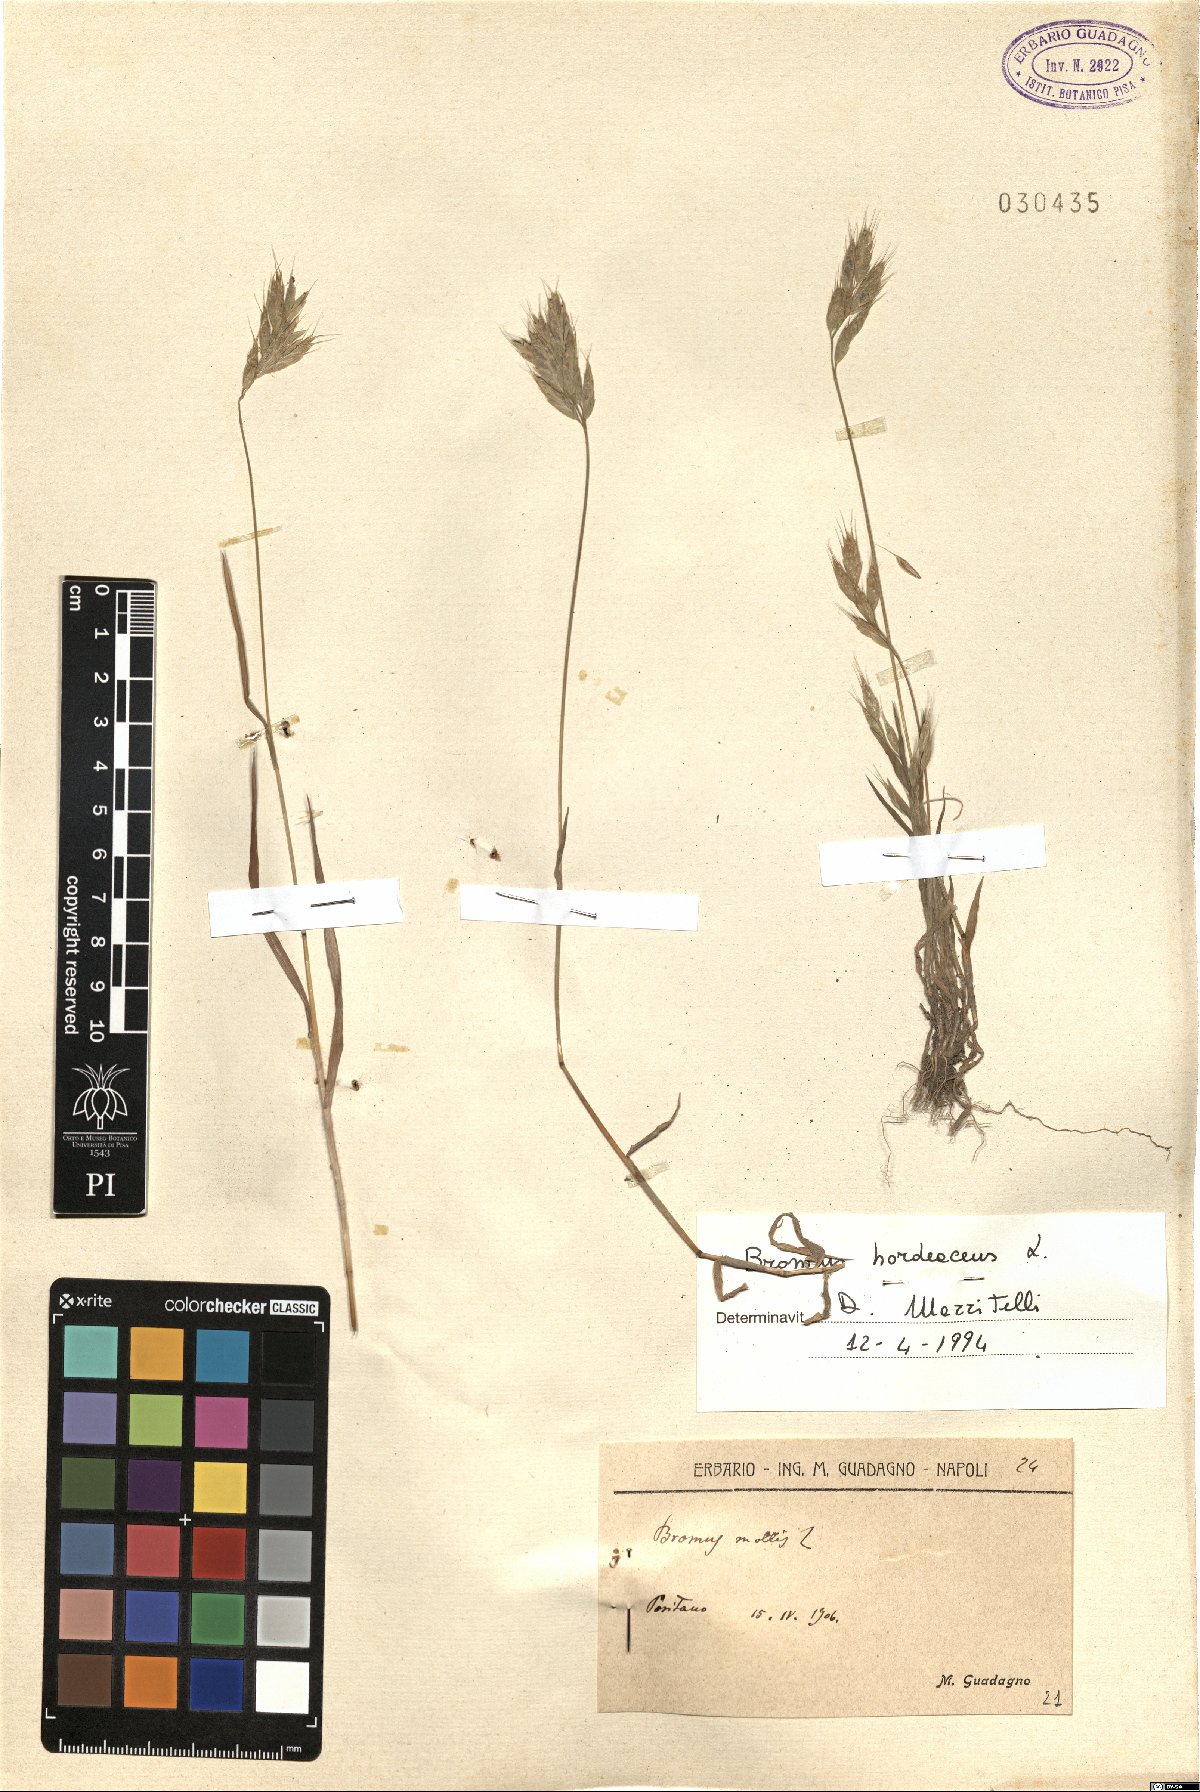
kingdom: Plantae
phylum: Tracheophyta
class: Liliopsida
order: Poales
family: Poaceae
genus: Bromus
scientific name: Bromus hordeaceus
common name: Soft brome
